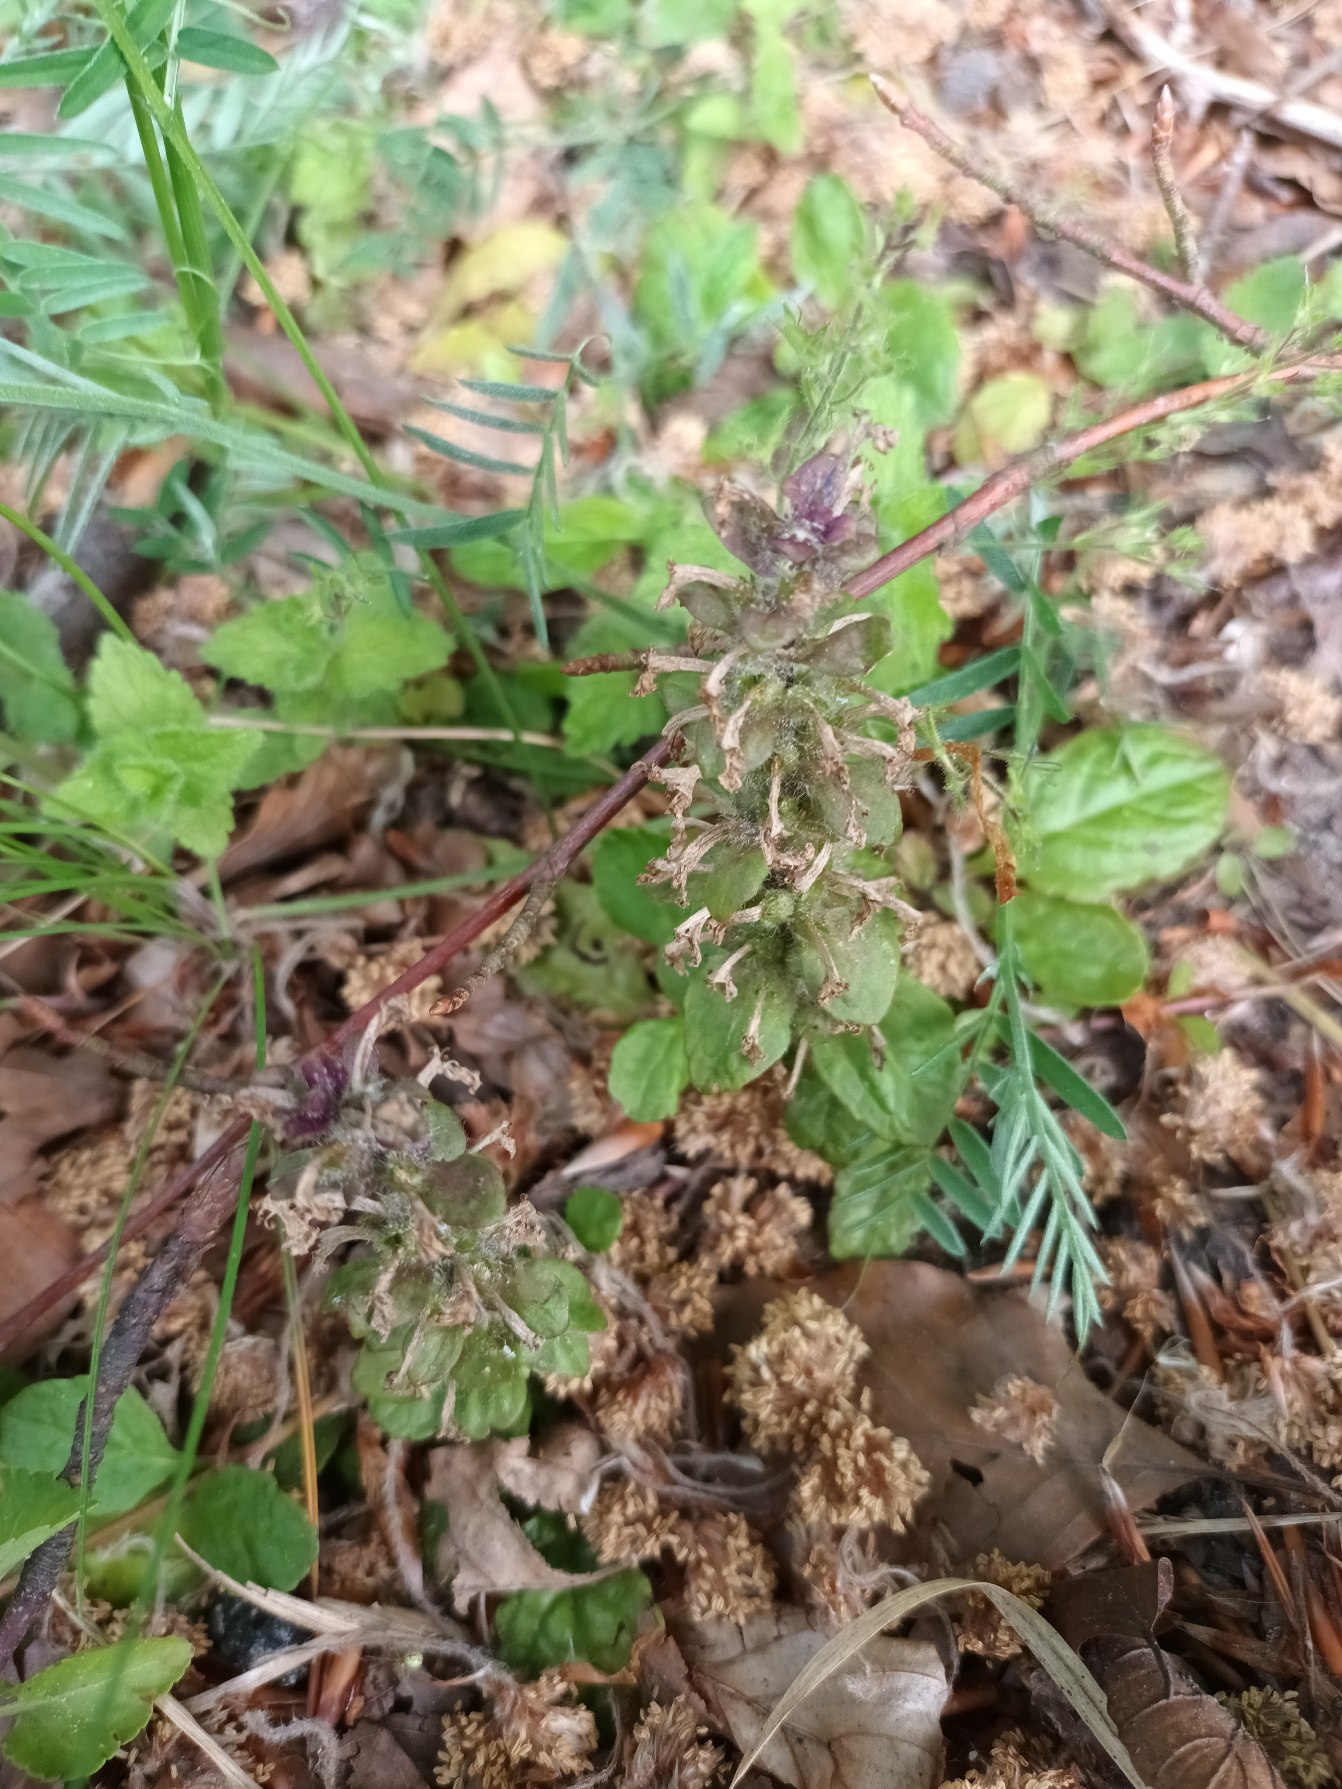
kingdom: Plantae
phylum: Tracheophyta
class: Magnoliopsida
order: Lamiales
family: Lamiaceae
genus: Ajuga
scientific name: Ajuga reptans
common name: Krybende læbeløs
